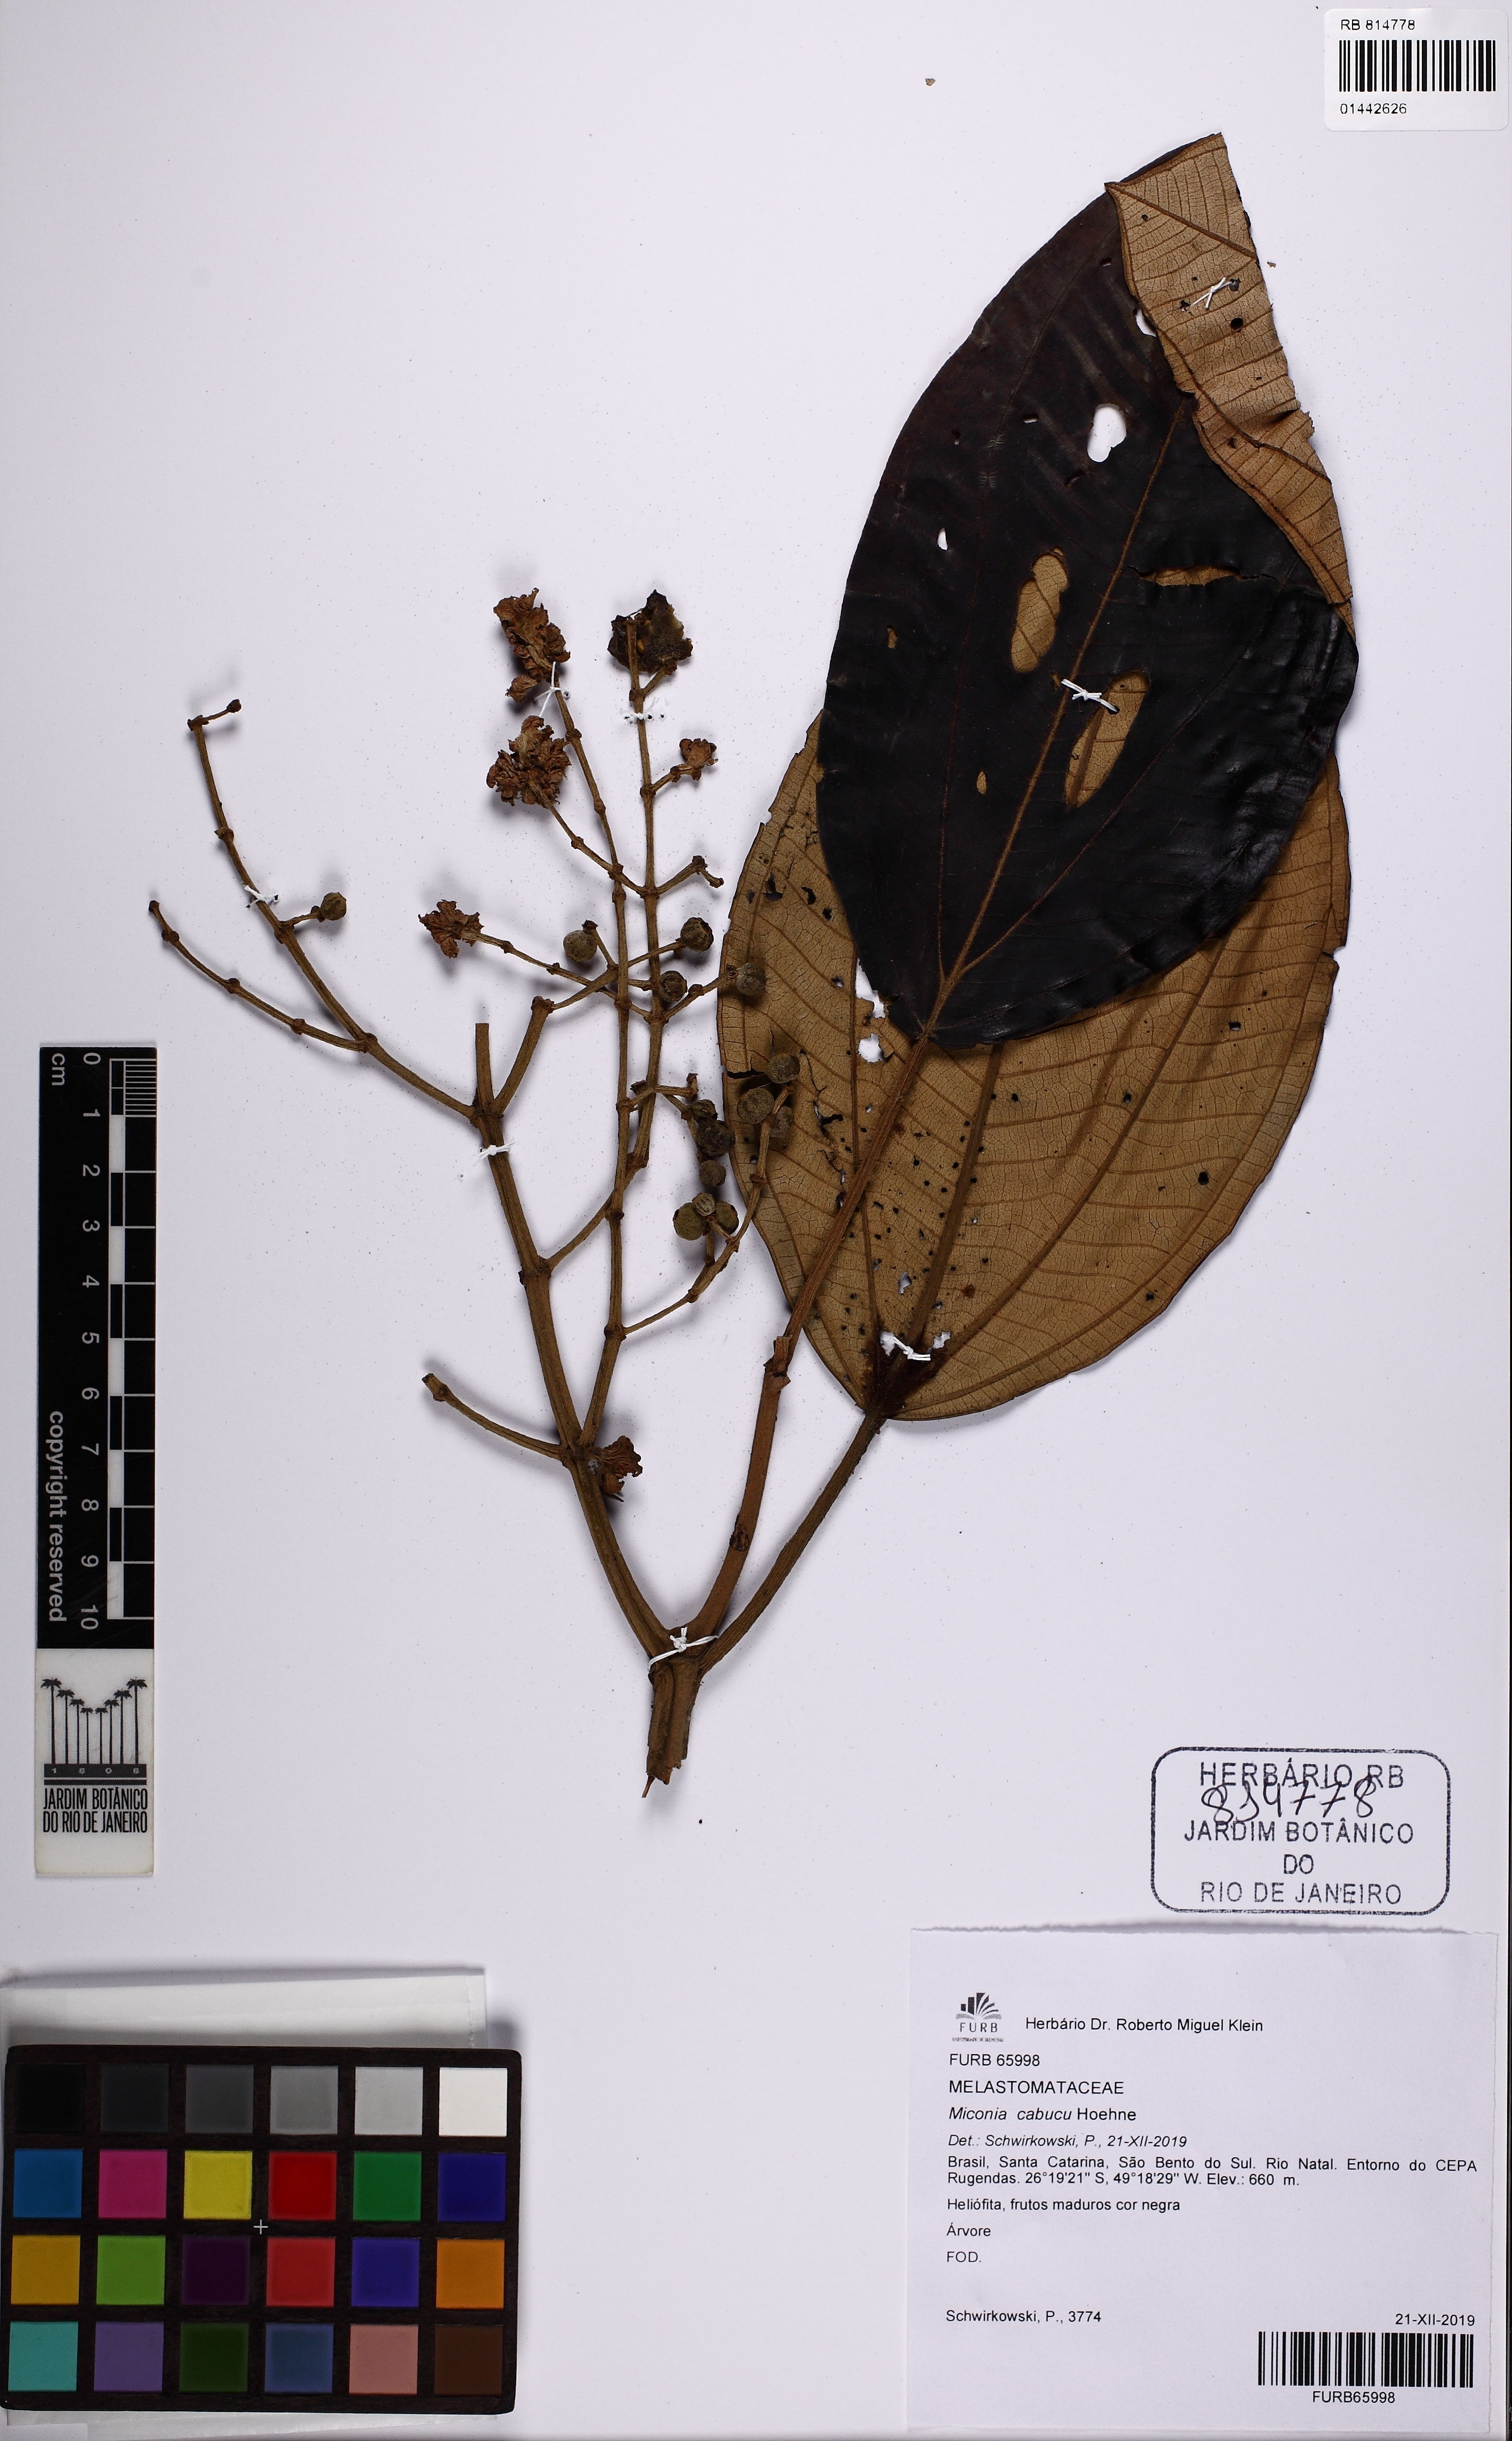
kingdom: Plantae
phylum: Tracheophyta
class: Magnoliopsida
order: Myrtales
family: Melastomataceae
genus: Miconia
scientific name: Miconia cabucu
